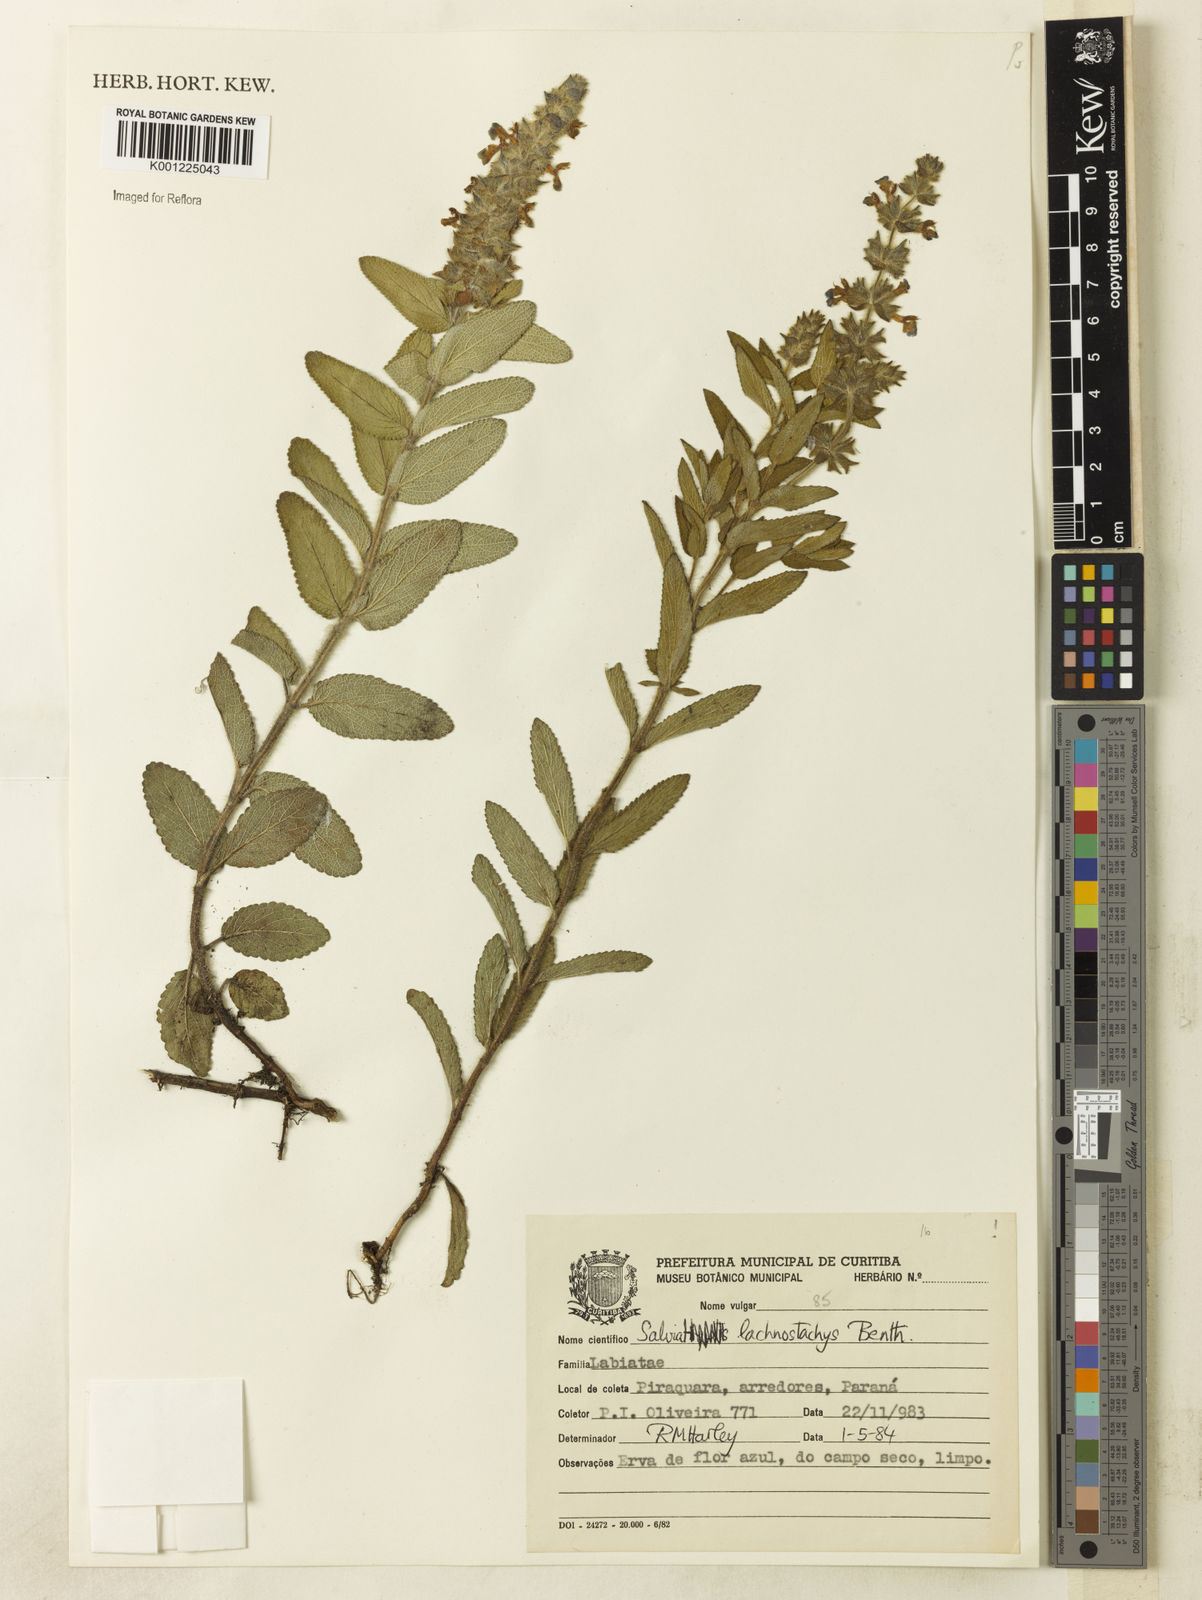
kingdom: Plantae
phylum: Tracheophyta
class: Magnoliopsida
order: Lamiales
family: Lamiaceae
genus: Salvia
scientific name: Salvia lachnostachys
